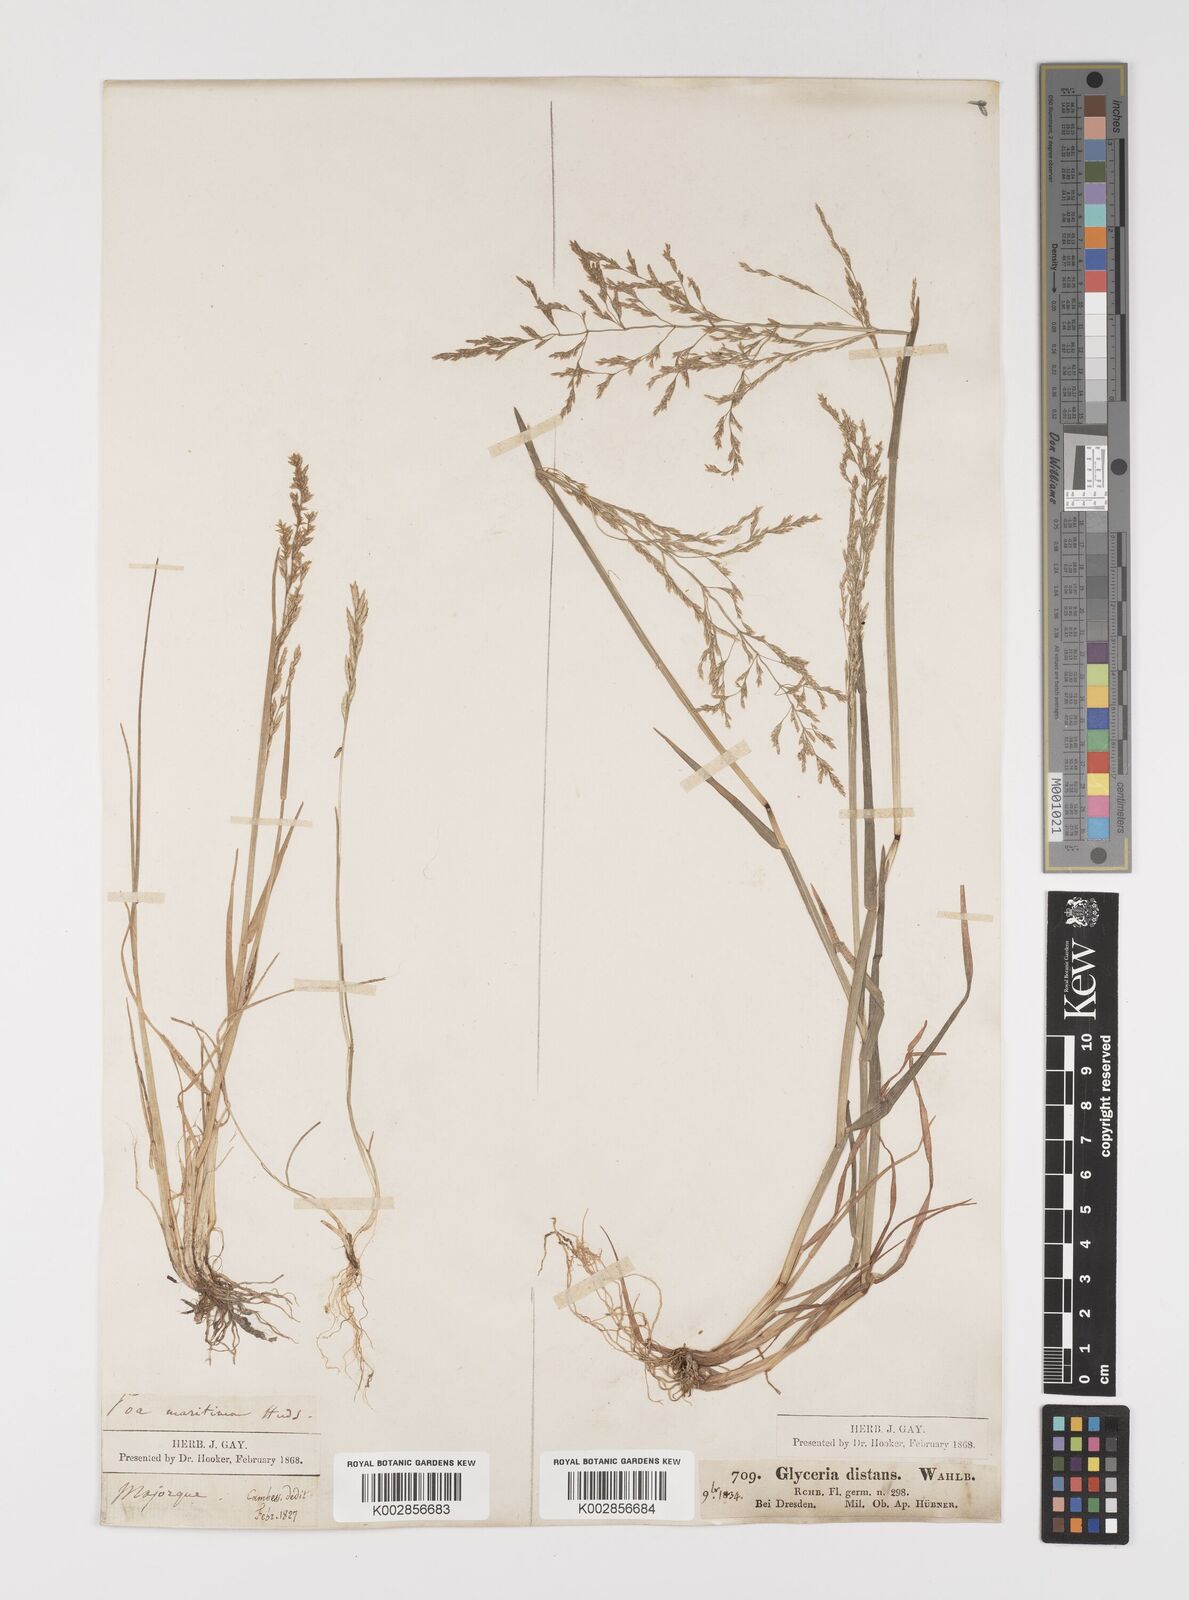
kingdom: Plantae
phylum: Tracheophyta
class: Liliopsida
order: Poales
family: Poaceae
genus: Puccinellia
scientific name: Puccinellia
